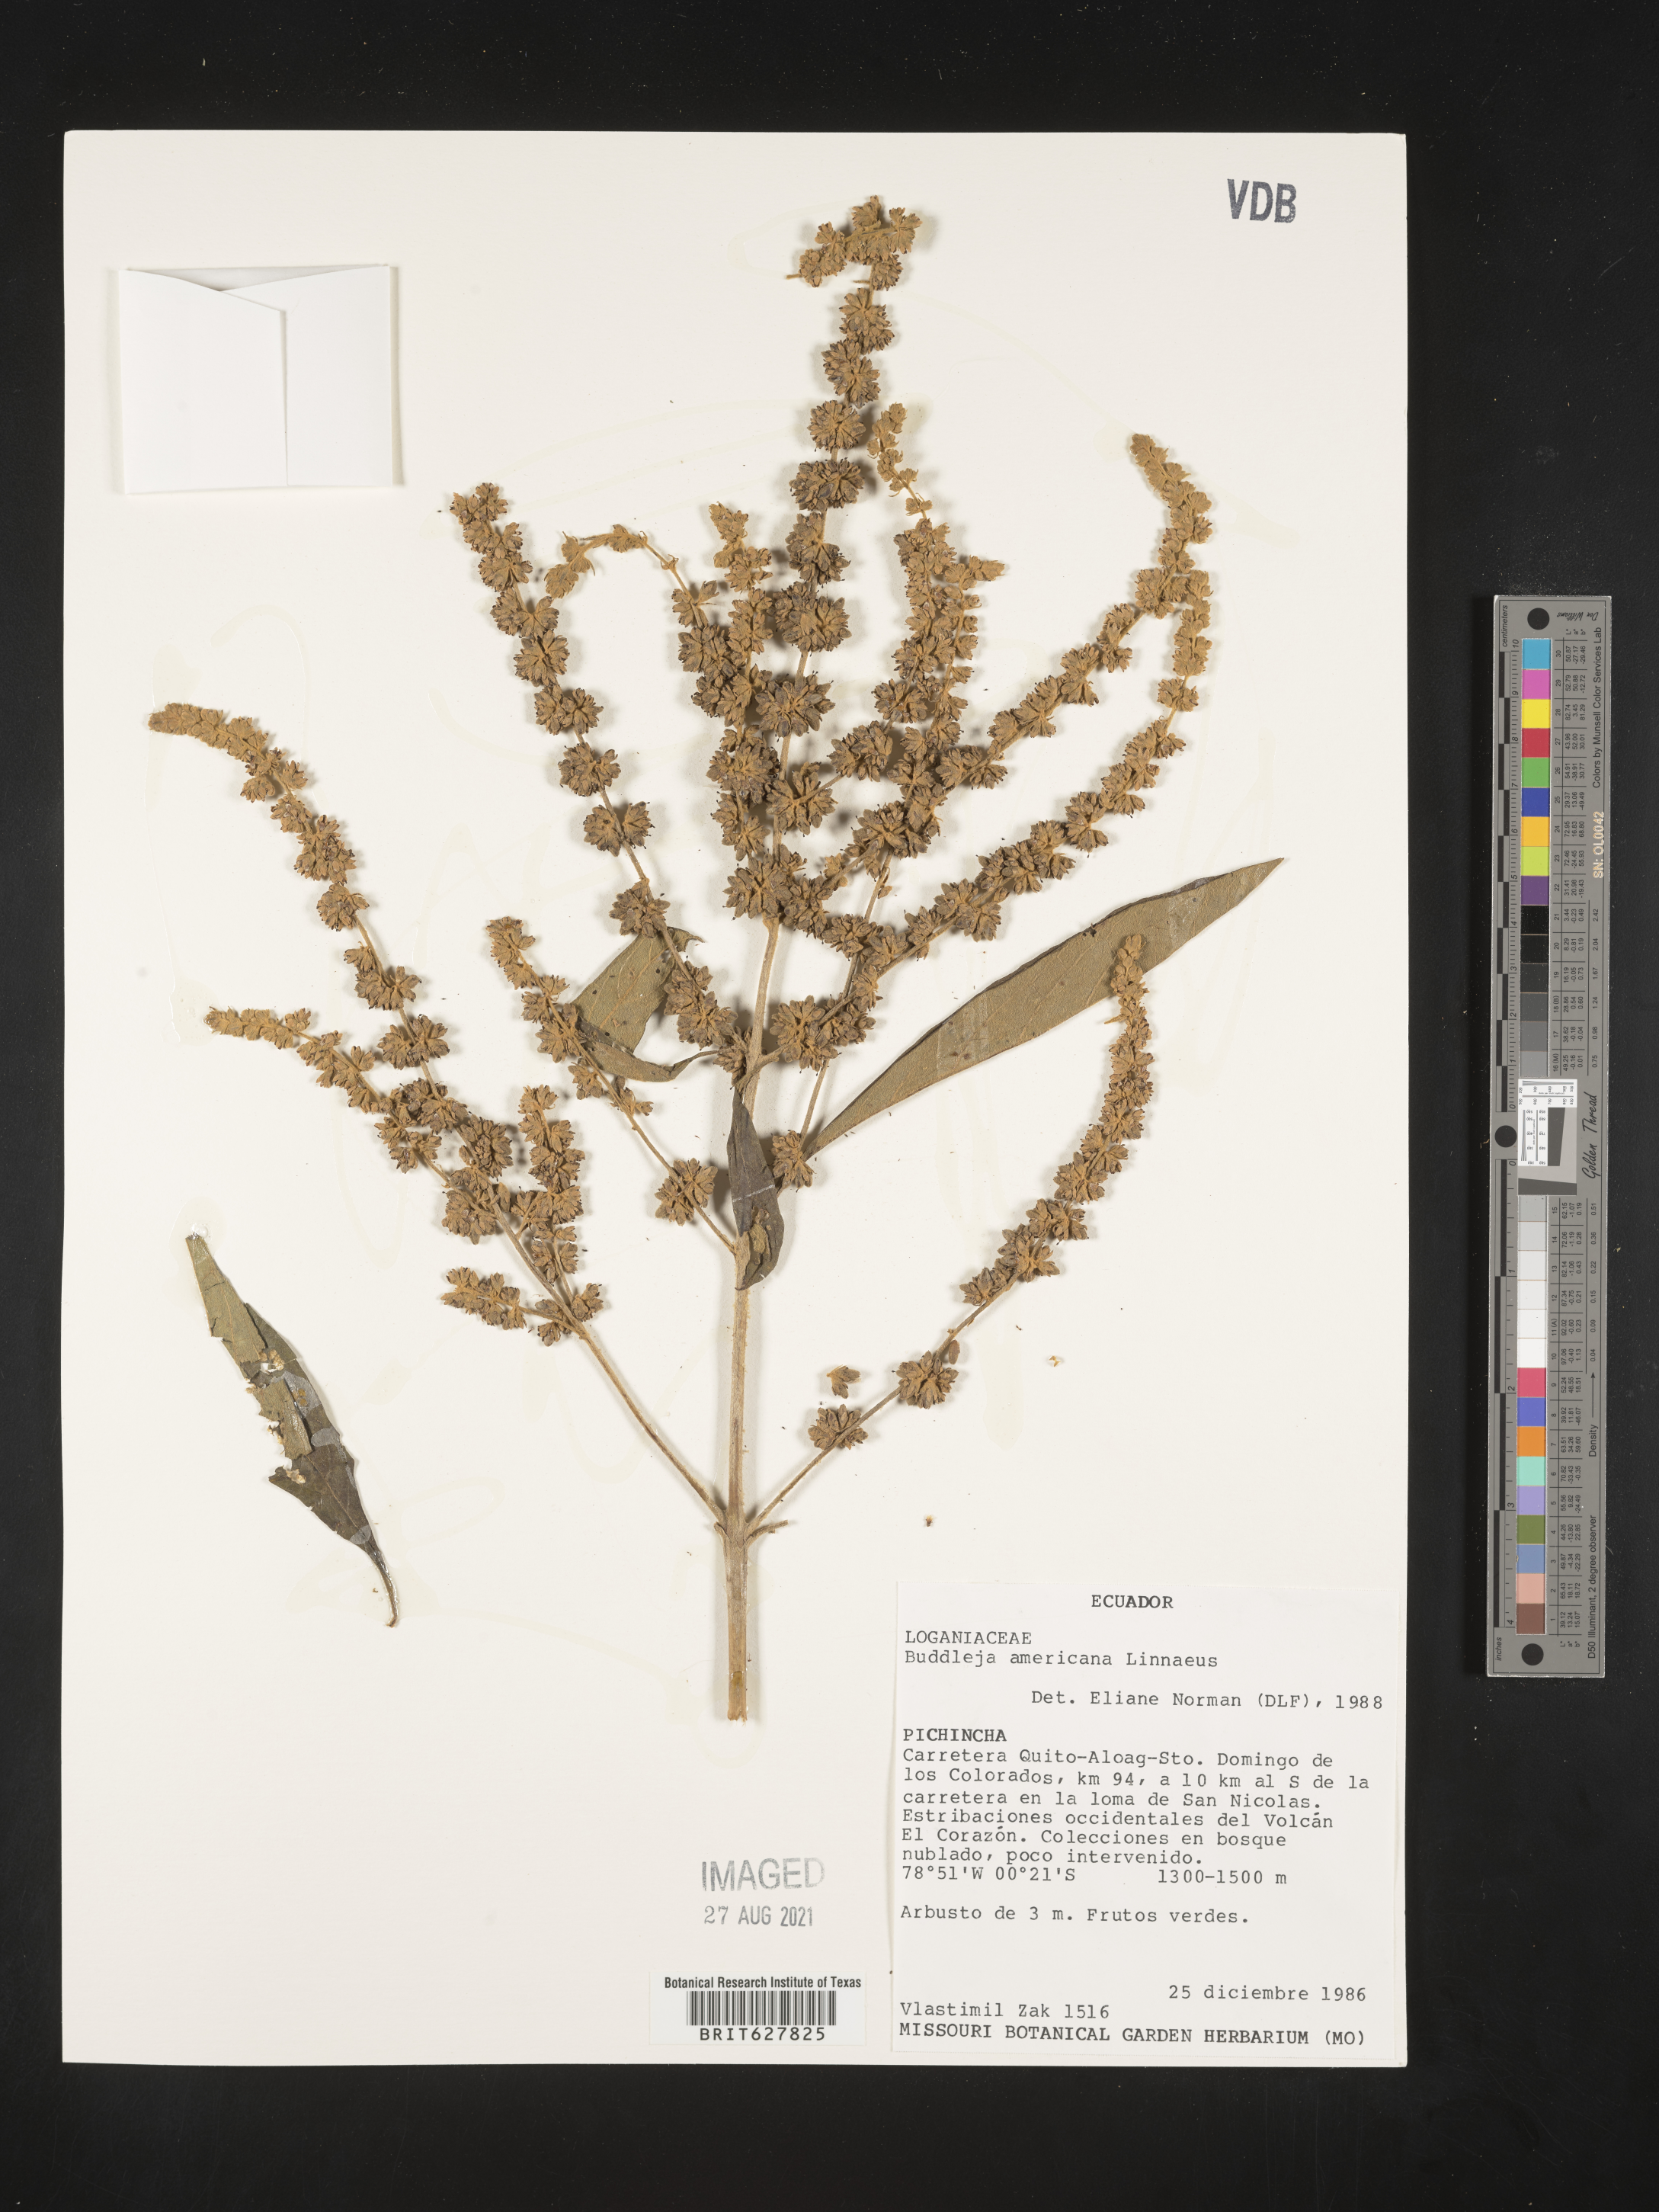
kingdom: Plantae
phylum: Tracheophyta
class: Magnoliopsida
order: Lamiales
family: Scrophulariaceae
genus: Buddleja
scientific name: Buddleja
